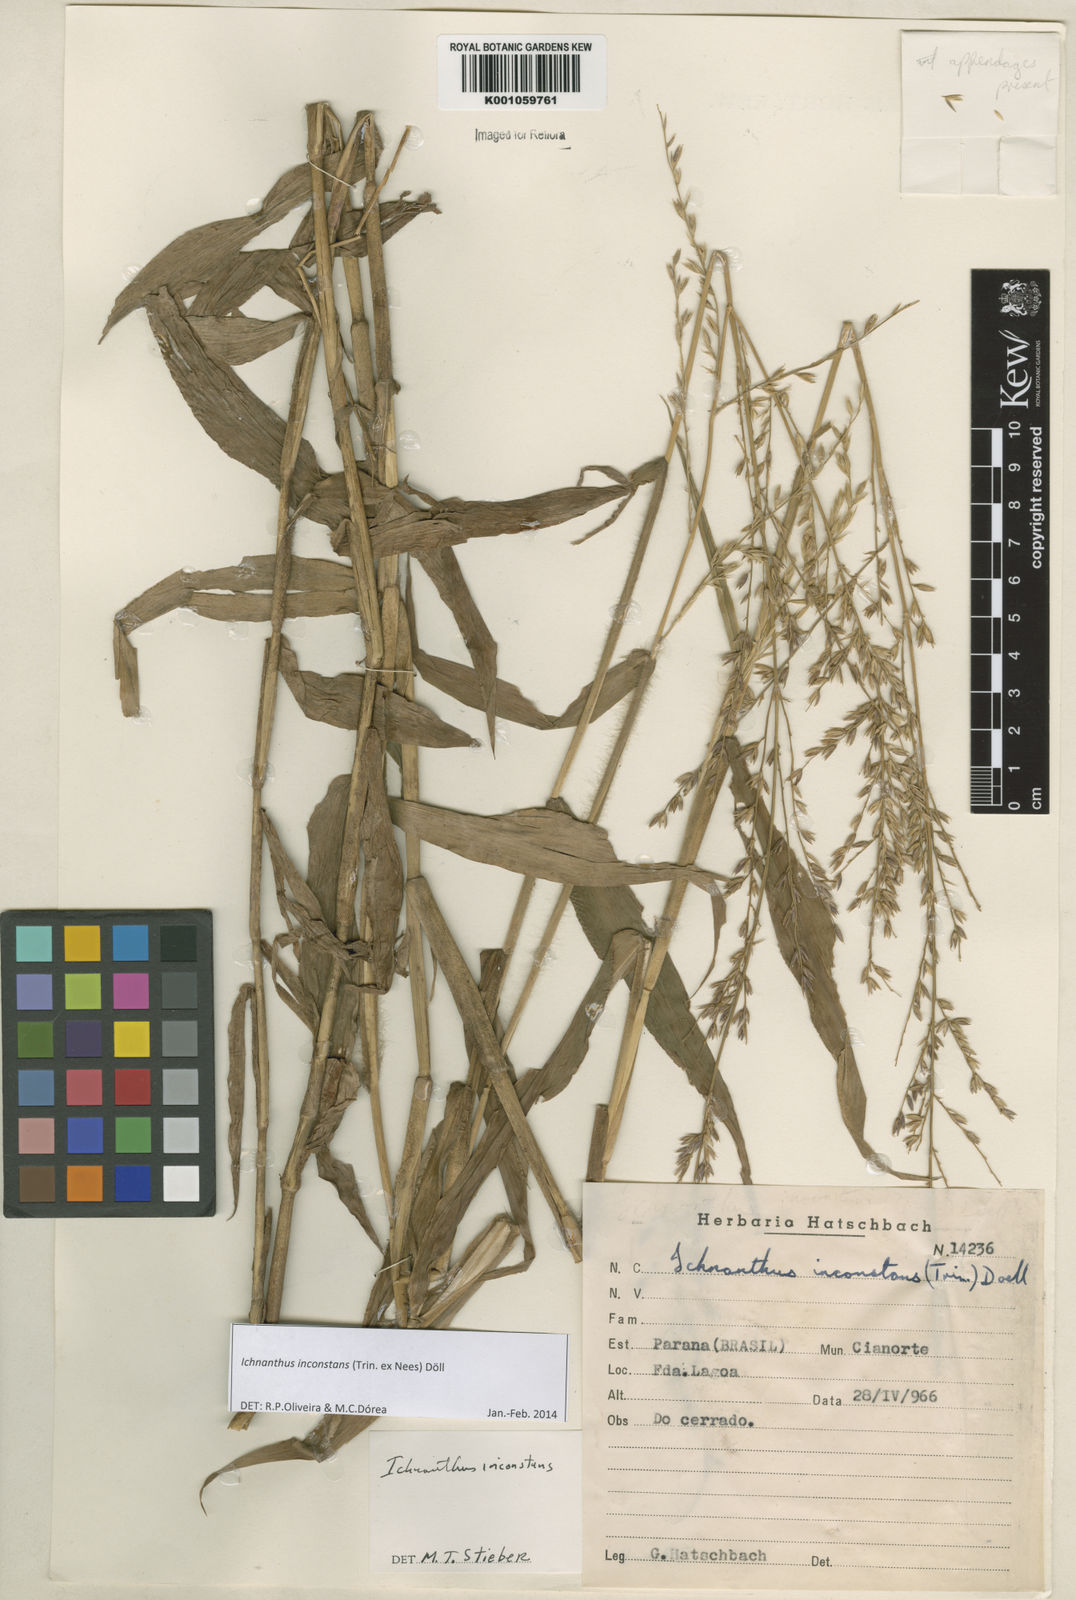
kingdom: Plantae
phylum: Tracheophyta
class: Liliopsida
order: Poales
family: Poaceae
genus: Ichnanthus
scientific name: Ichnanthus
